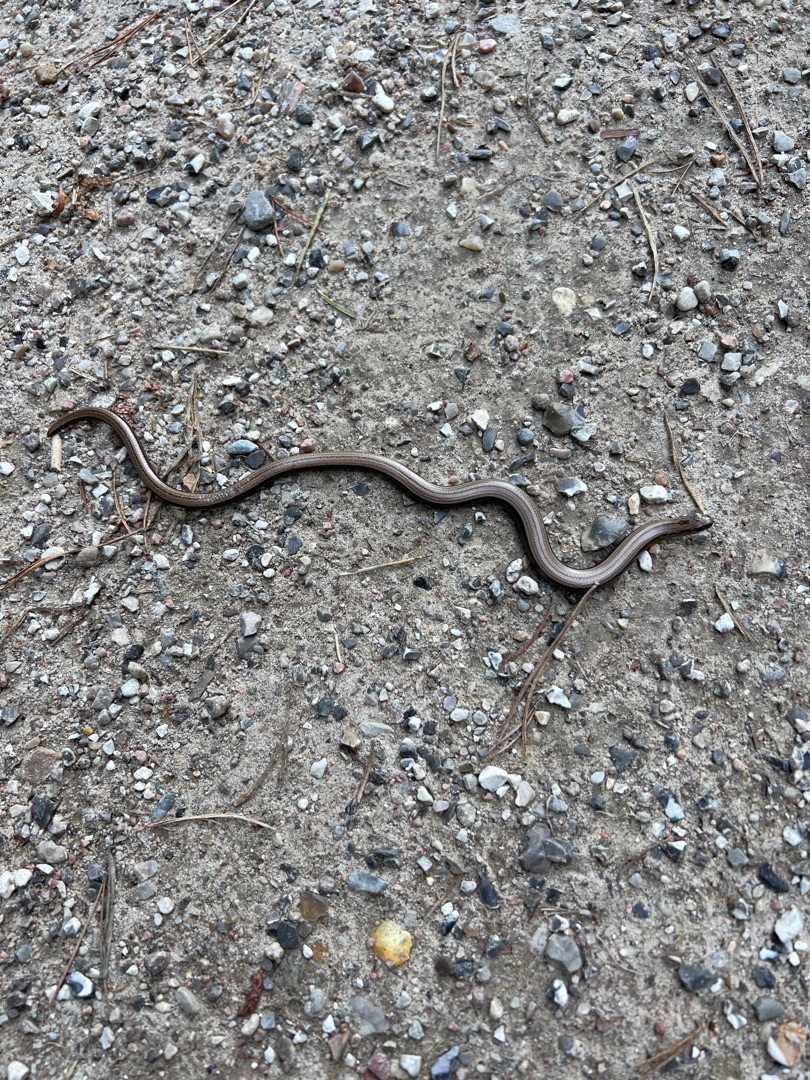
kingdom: Animalia
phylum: Chordata
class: Squamata
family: Anguidae
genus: Anguis
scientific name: Anguis fragilis
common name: Stålorm
